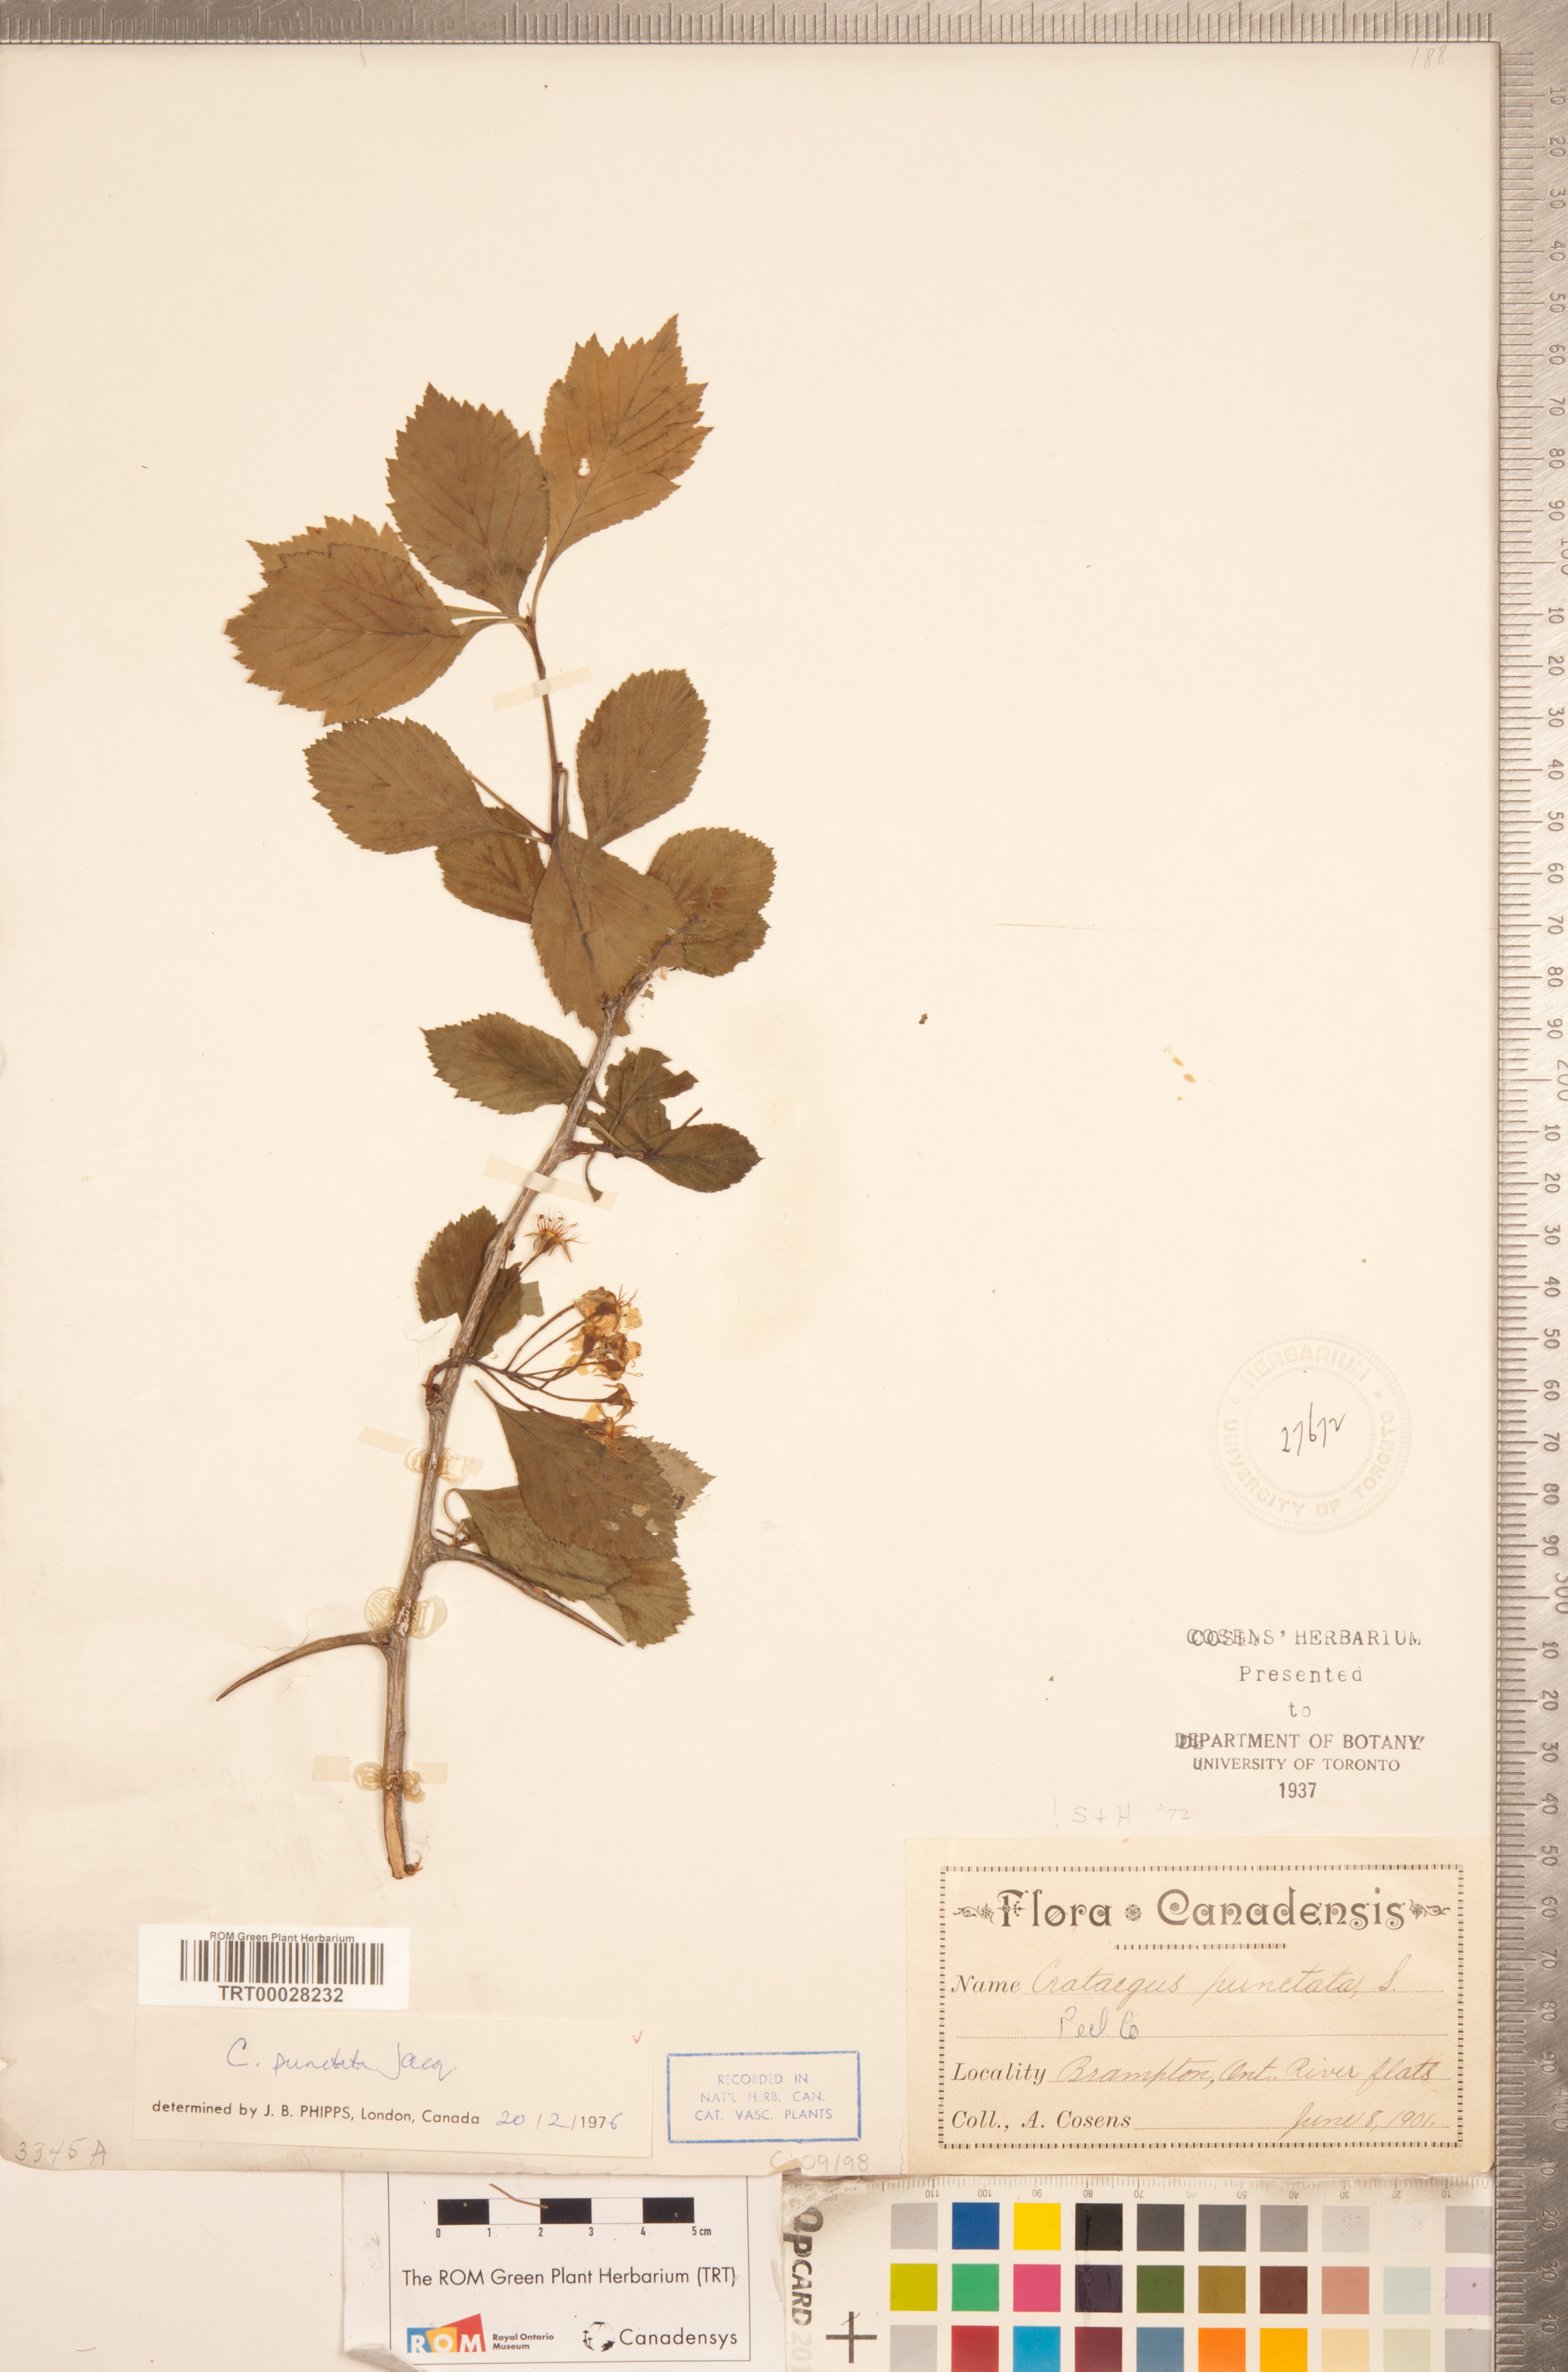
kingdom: Plantae
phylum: Tracheophyta
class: Magnoliopsida
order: Rosales
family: Rosaceae
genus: Crataegus
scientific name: Crataegus punctata
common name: Dotted hawthorn
